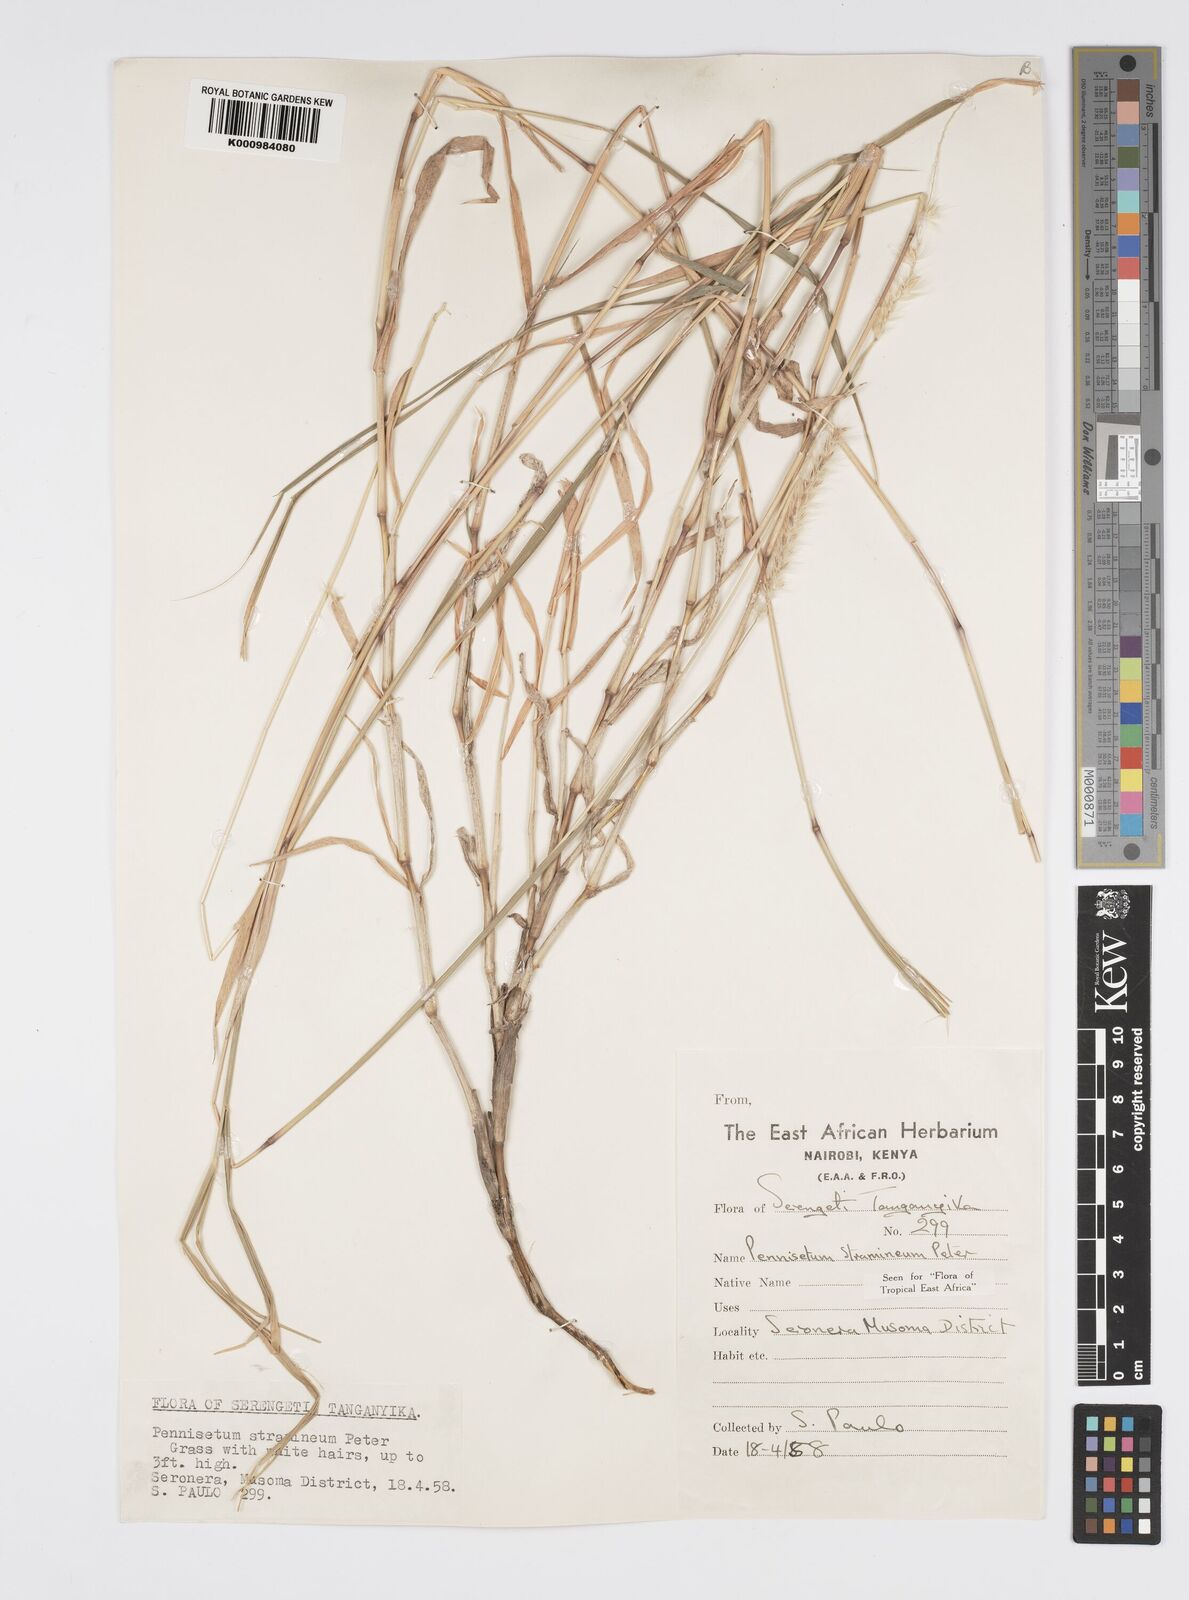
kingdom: Plantae
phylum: Tracheophyta
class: Liliopsida
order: Poales
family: Poaceae
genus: Cenchrus
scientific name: Cenchrus stramineus
